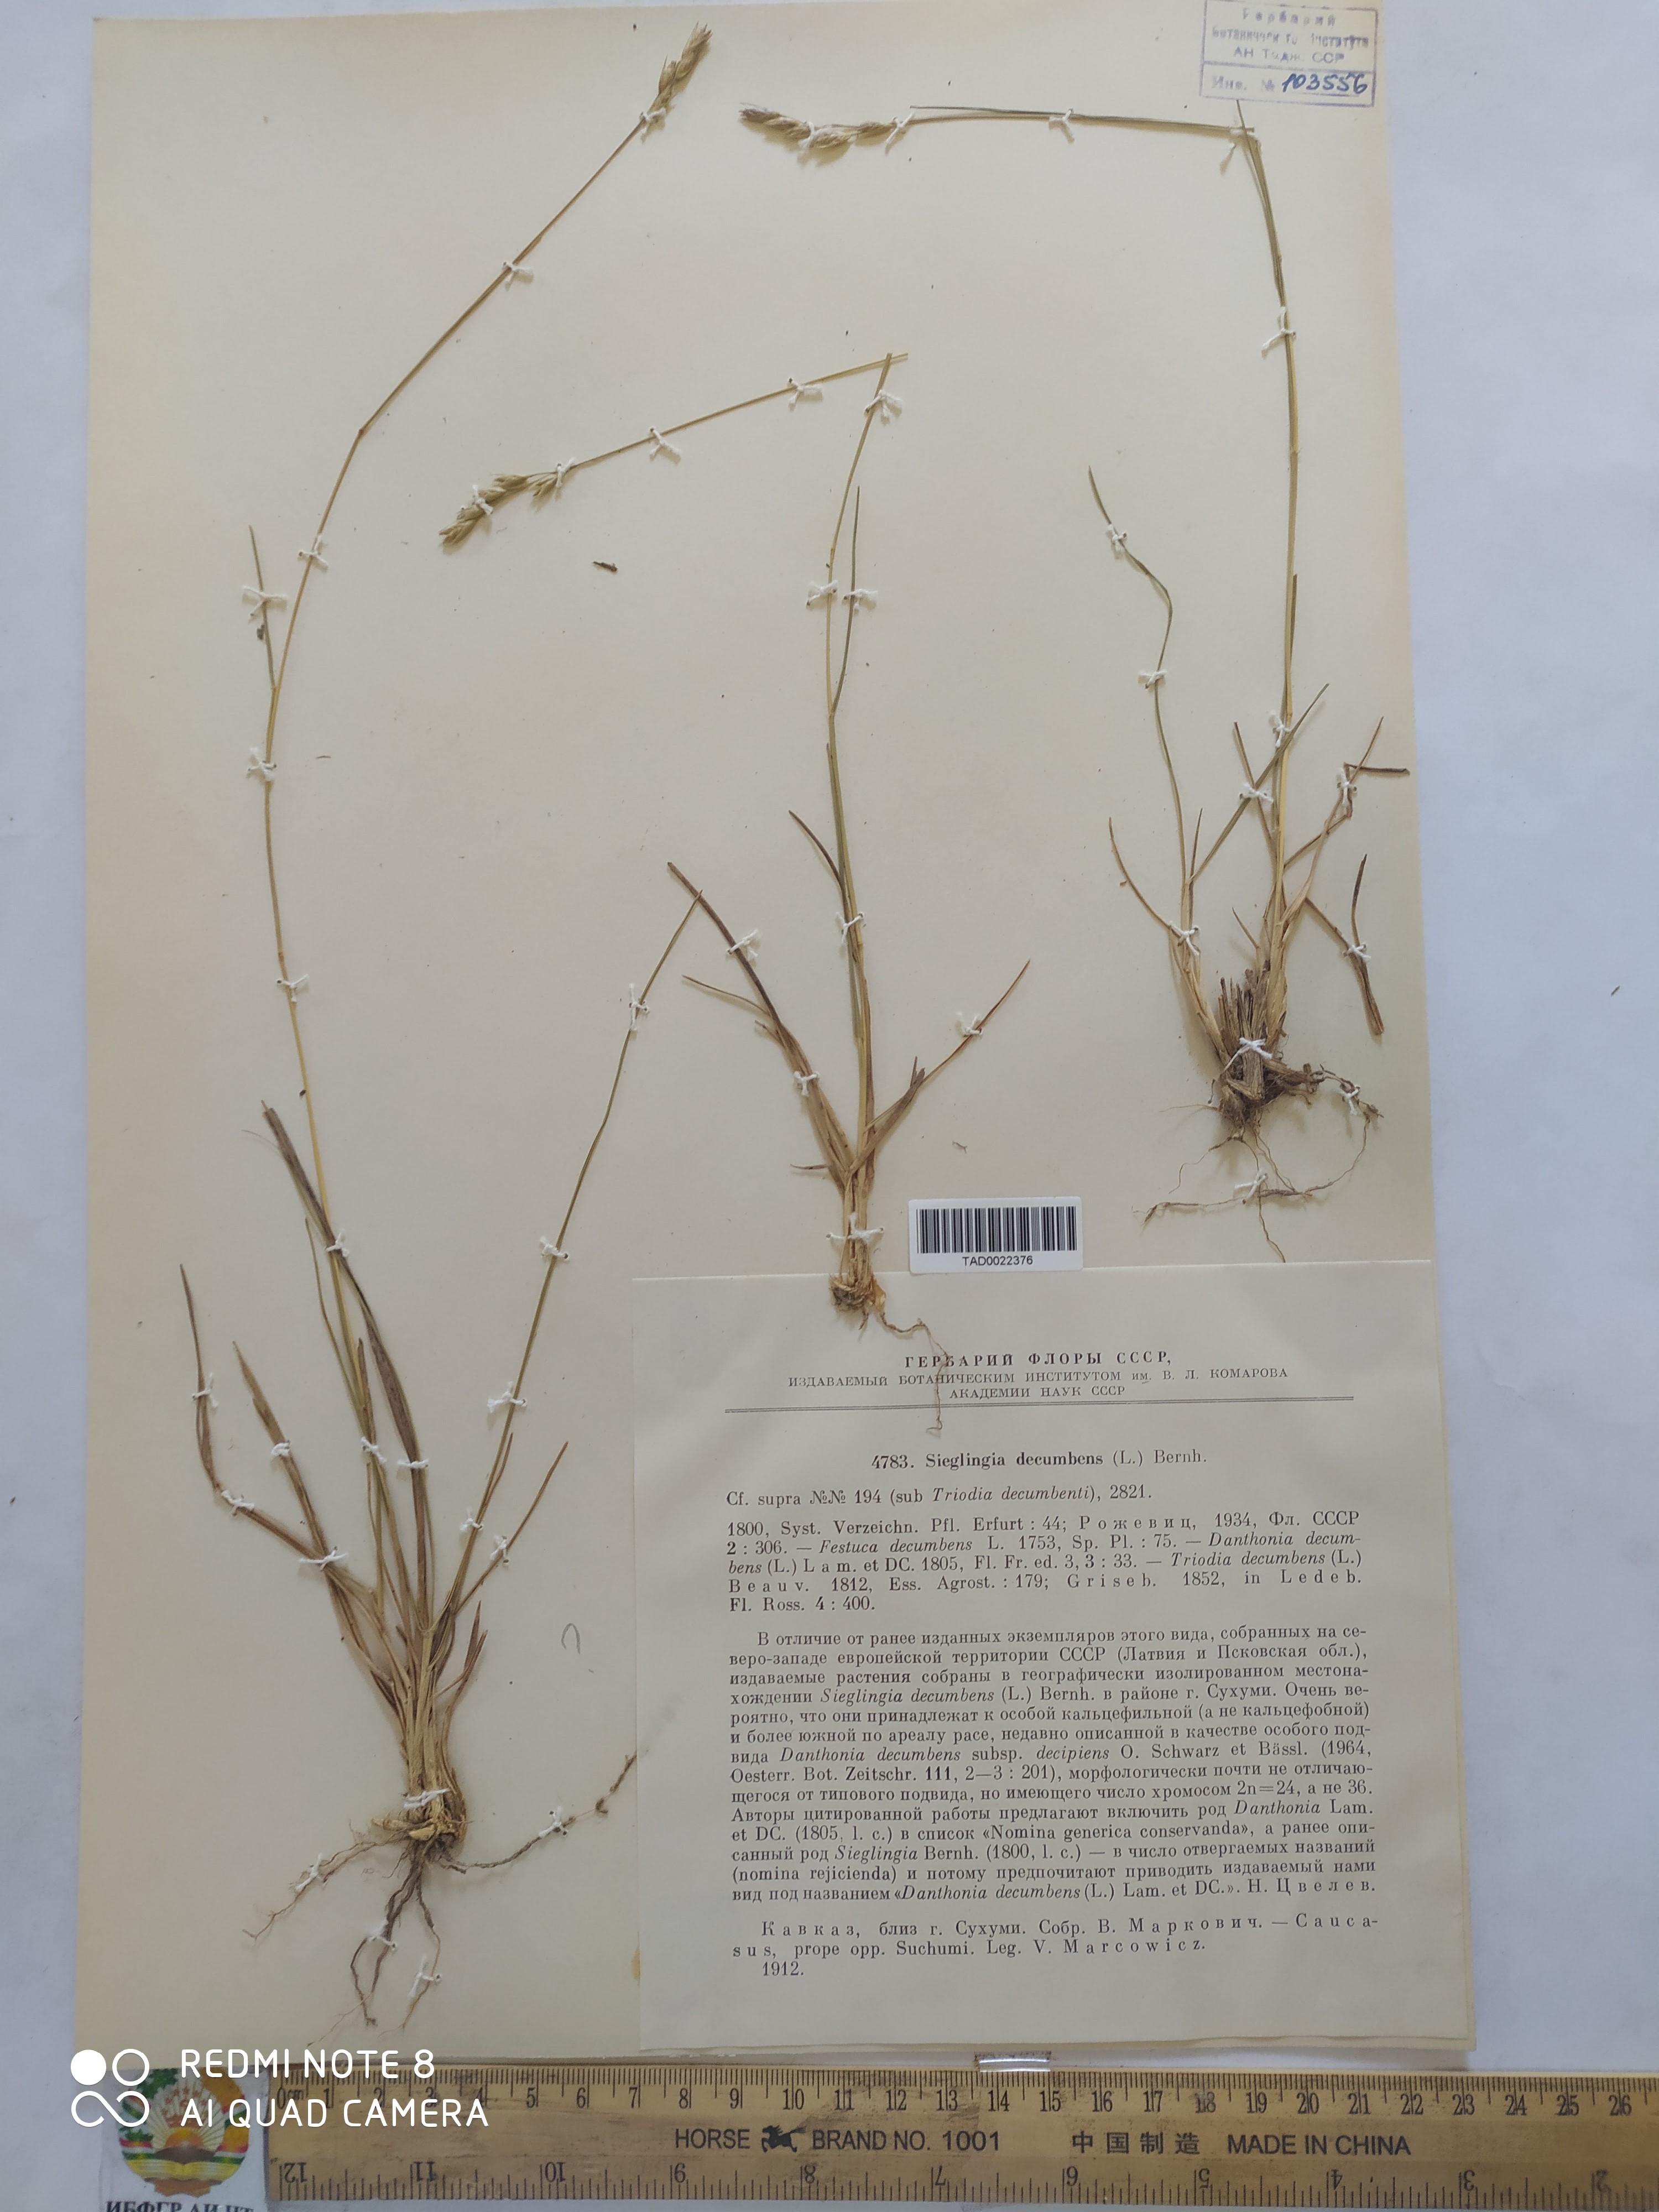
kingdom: Plantae
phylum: Tracheophyta
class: Liliopsida
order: Poales
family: Poaceae
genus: Danthonia
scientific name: Danthonia decumbens
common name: Common heathgrass
